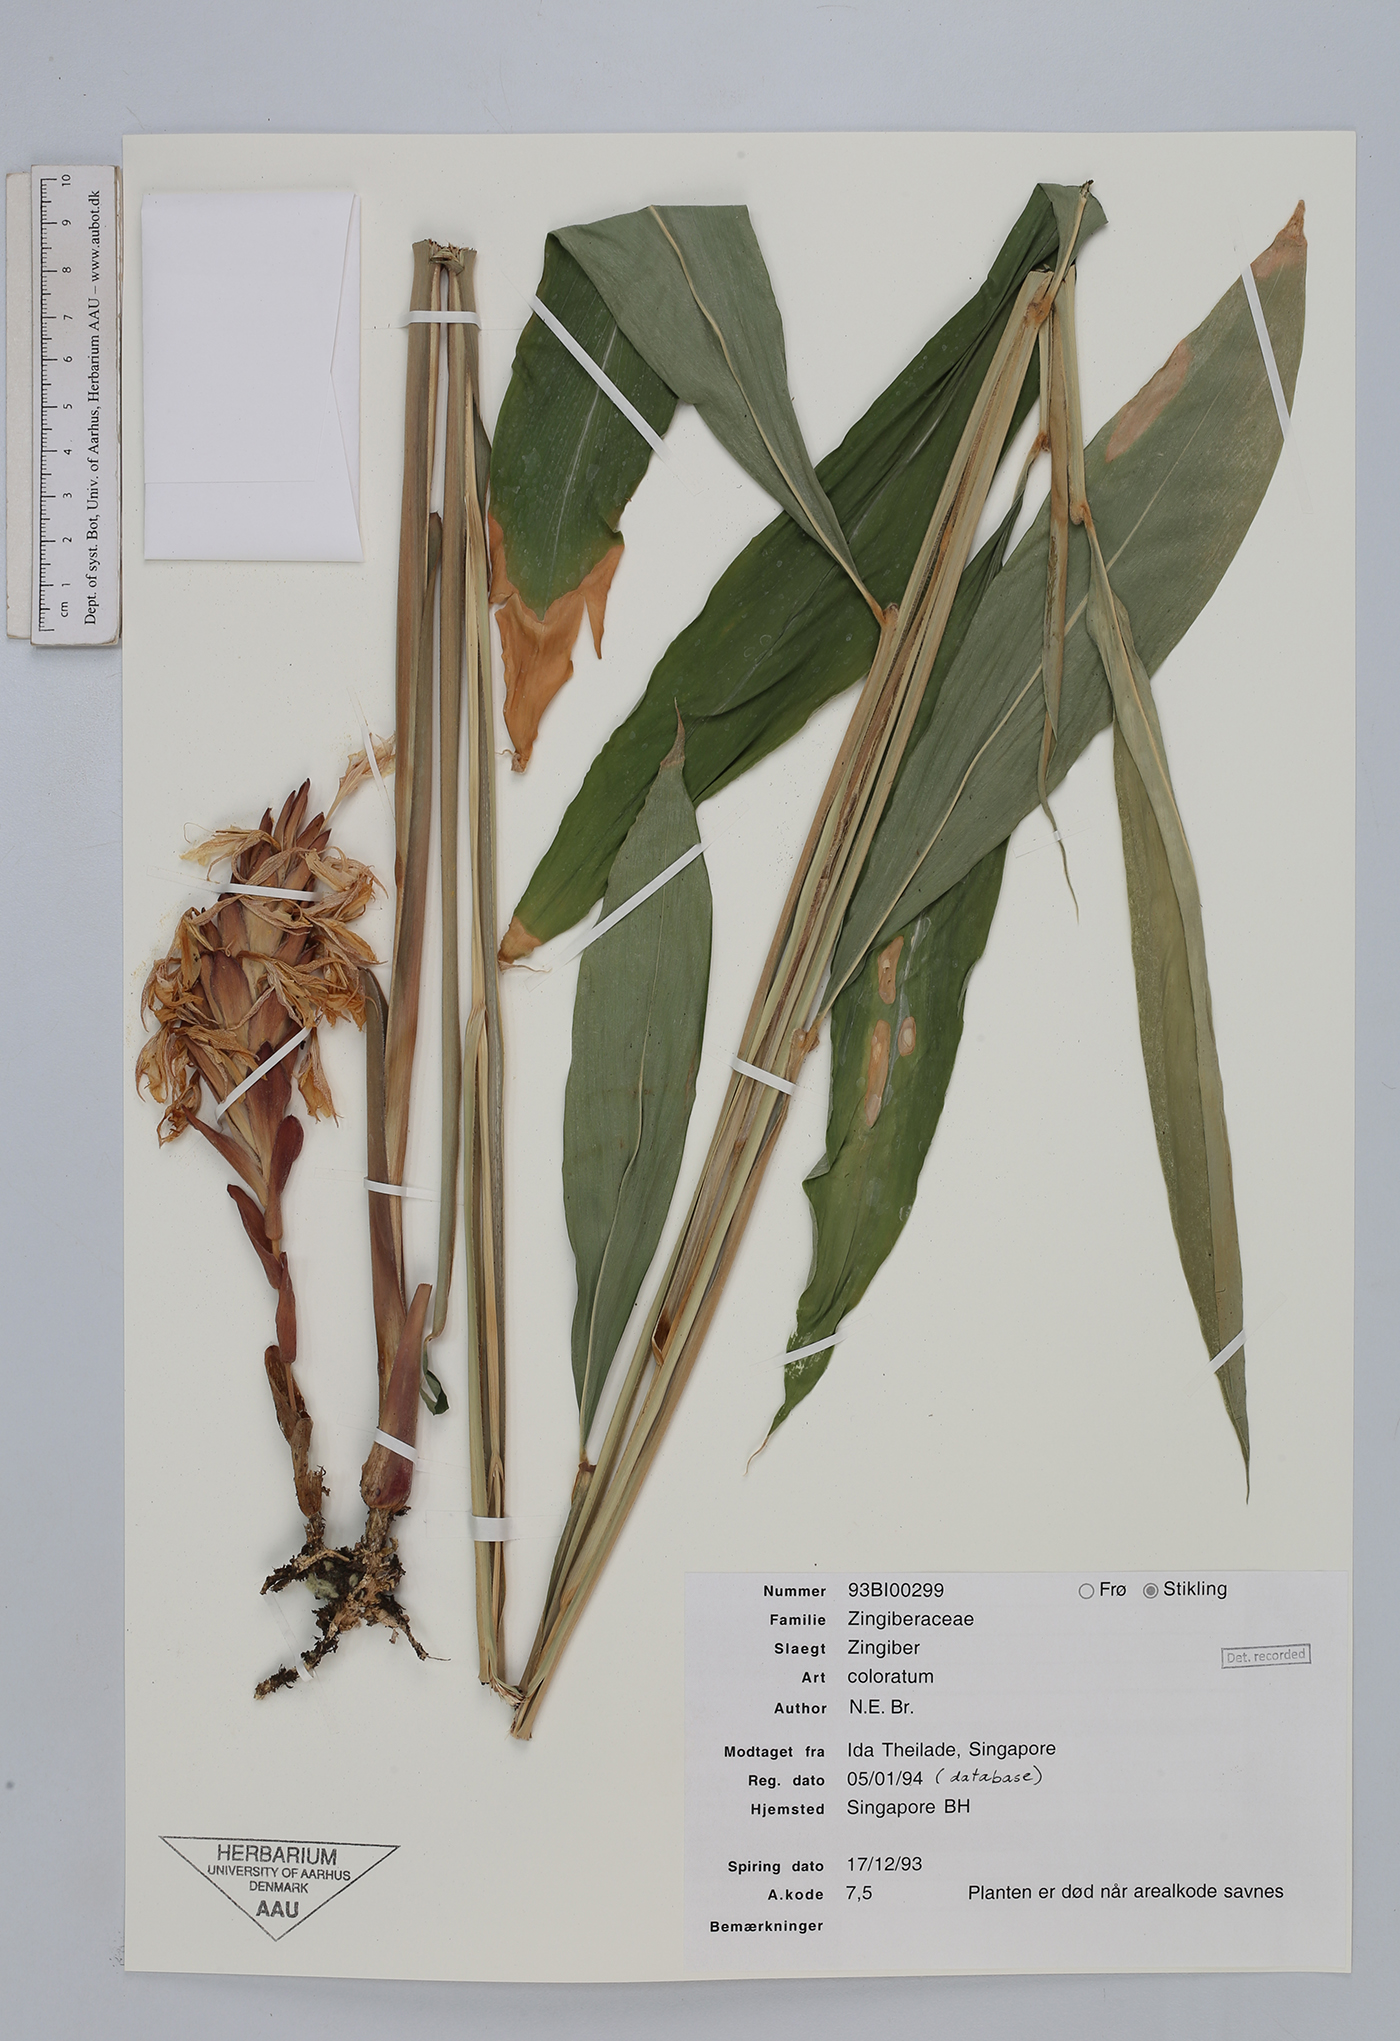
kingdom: Plantae
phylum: Tracheophyta
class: Liliopsida
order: Zingiberales
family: Zingiberaceae
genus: Zingiber
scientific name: Zingiber coloratum
